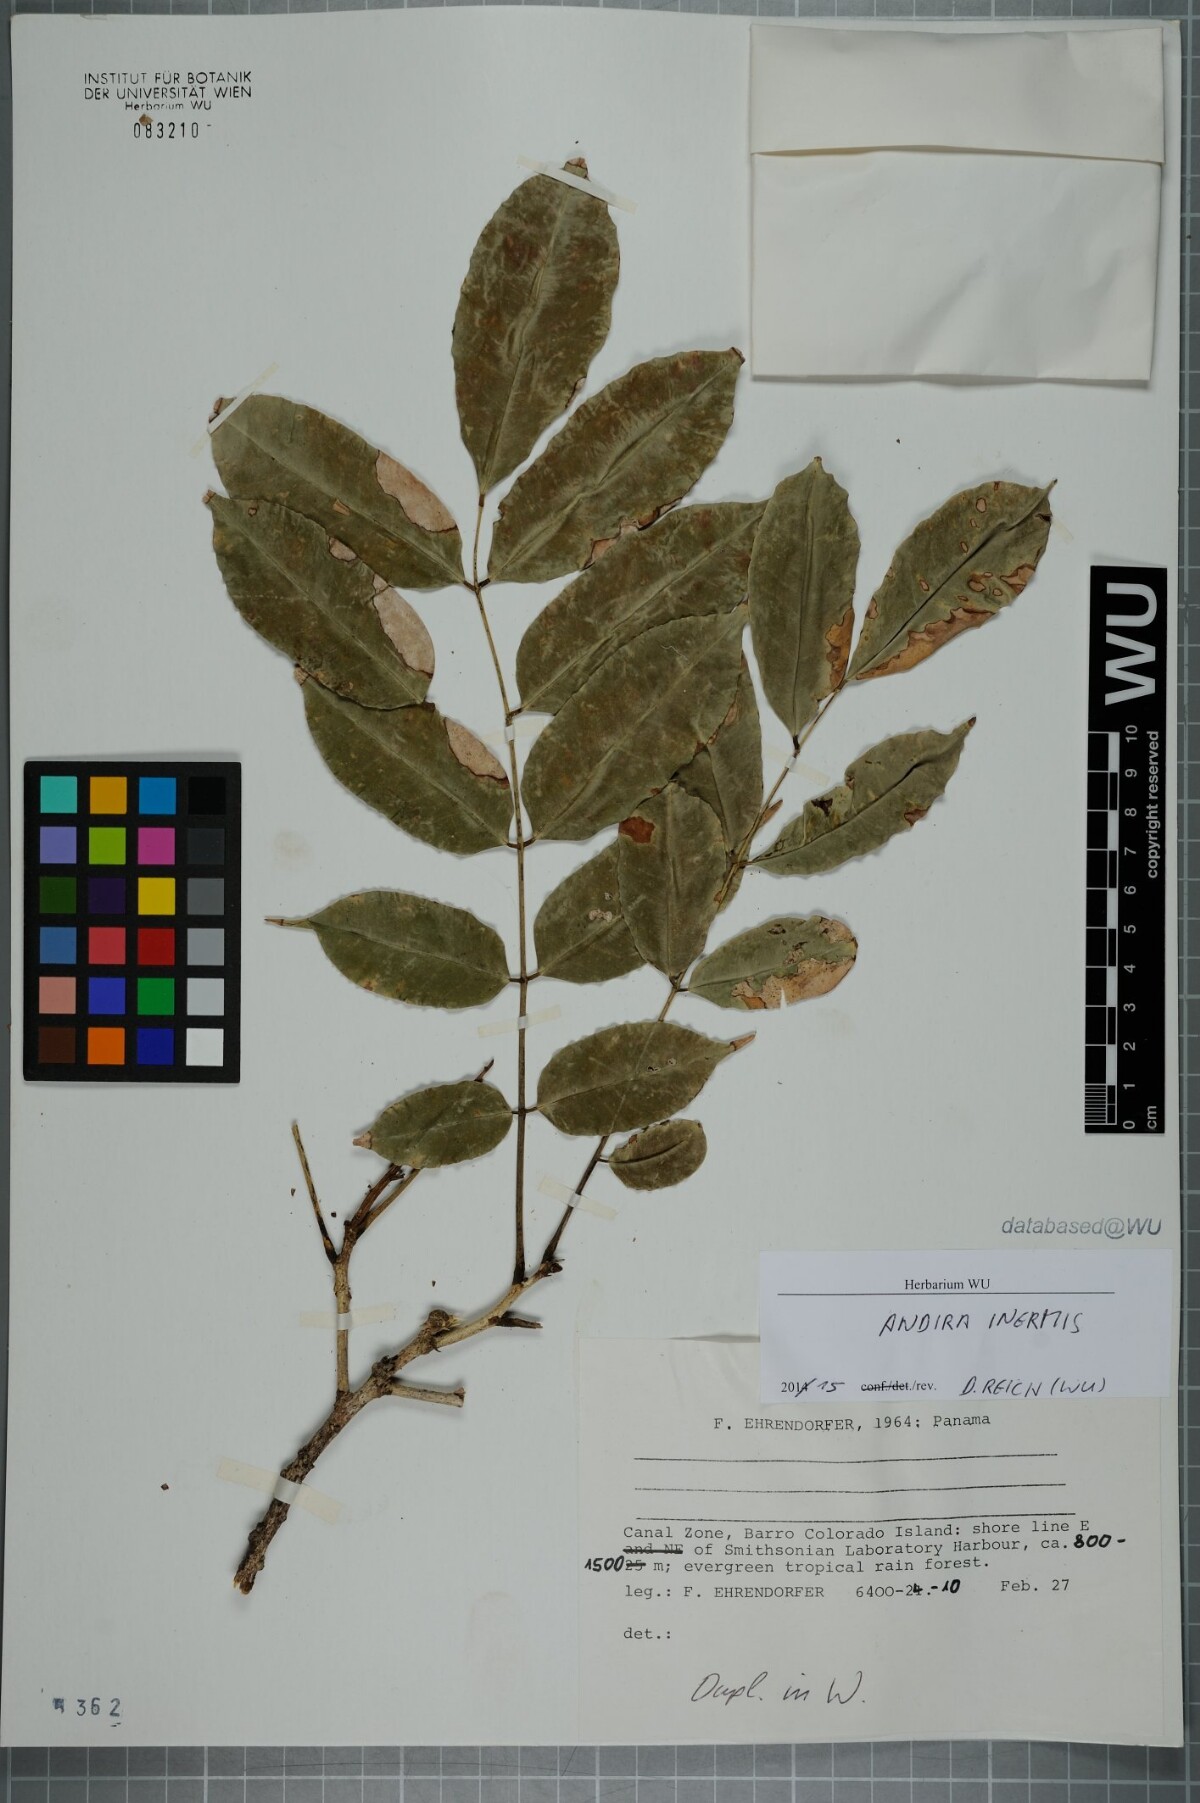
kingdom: Plantae
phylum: Tracheophyta
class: Magnoliopsida
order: Fabales
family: Fabaceae
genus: Andira
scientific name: Andira inermis
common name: Angelin
